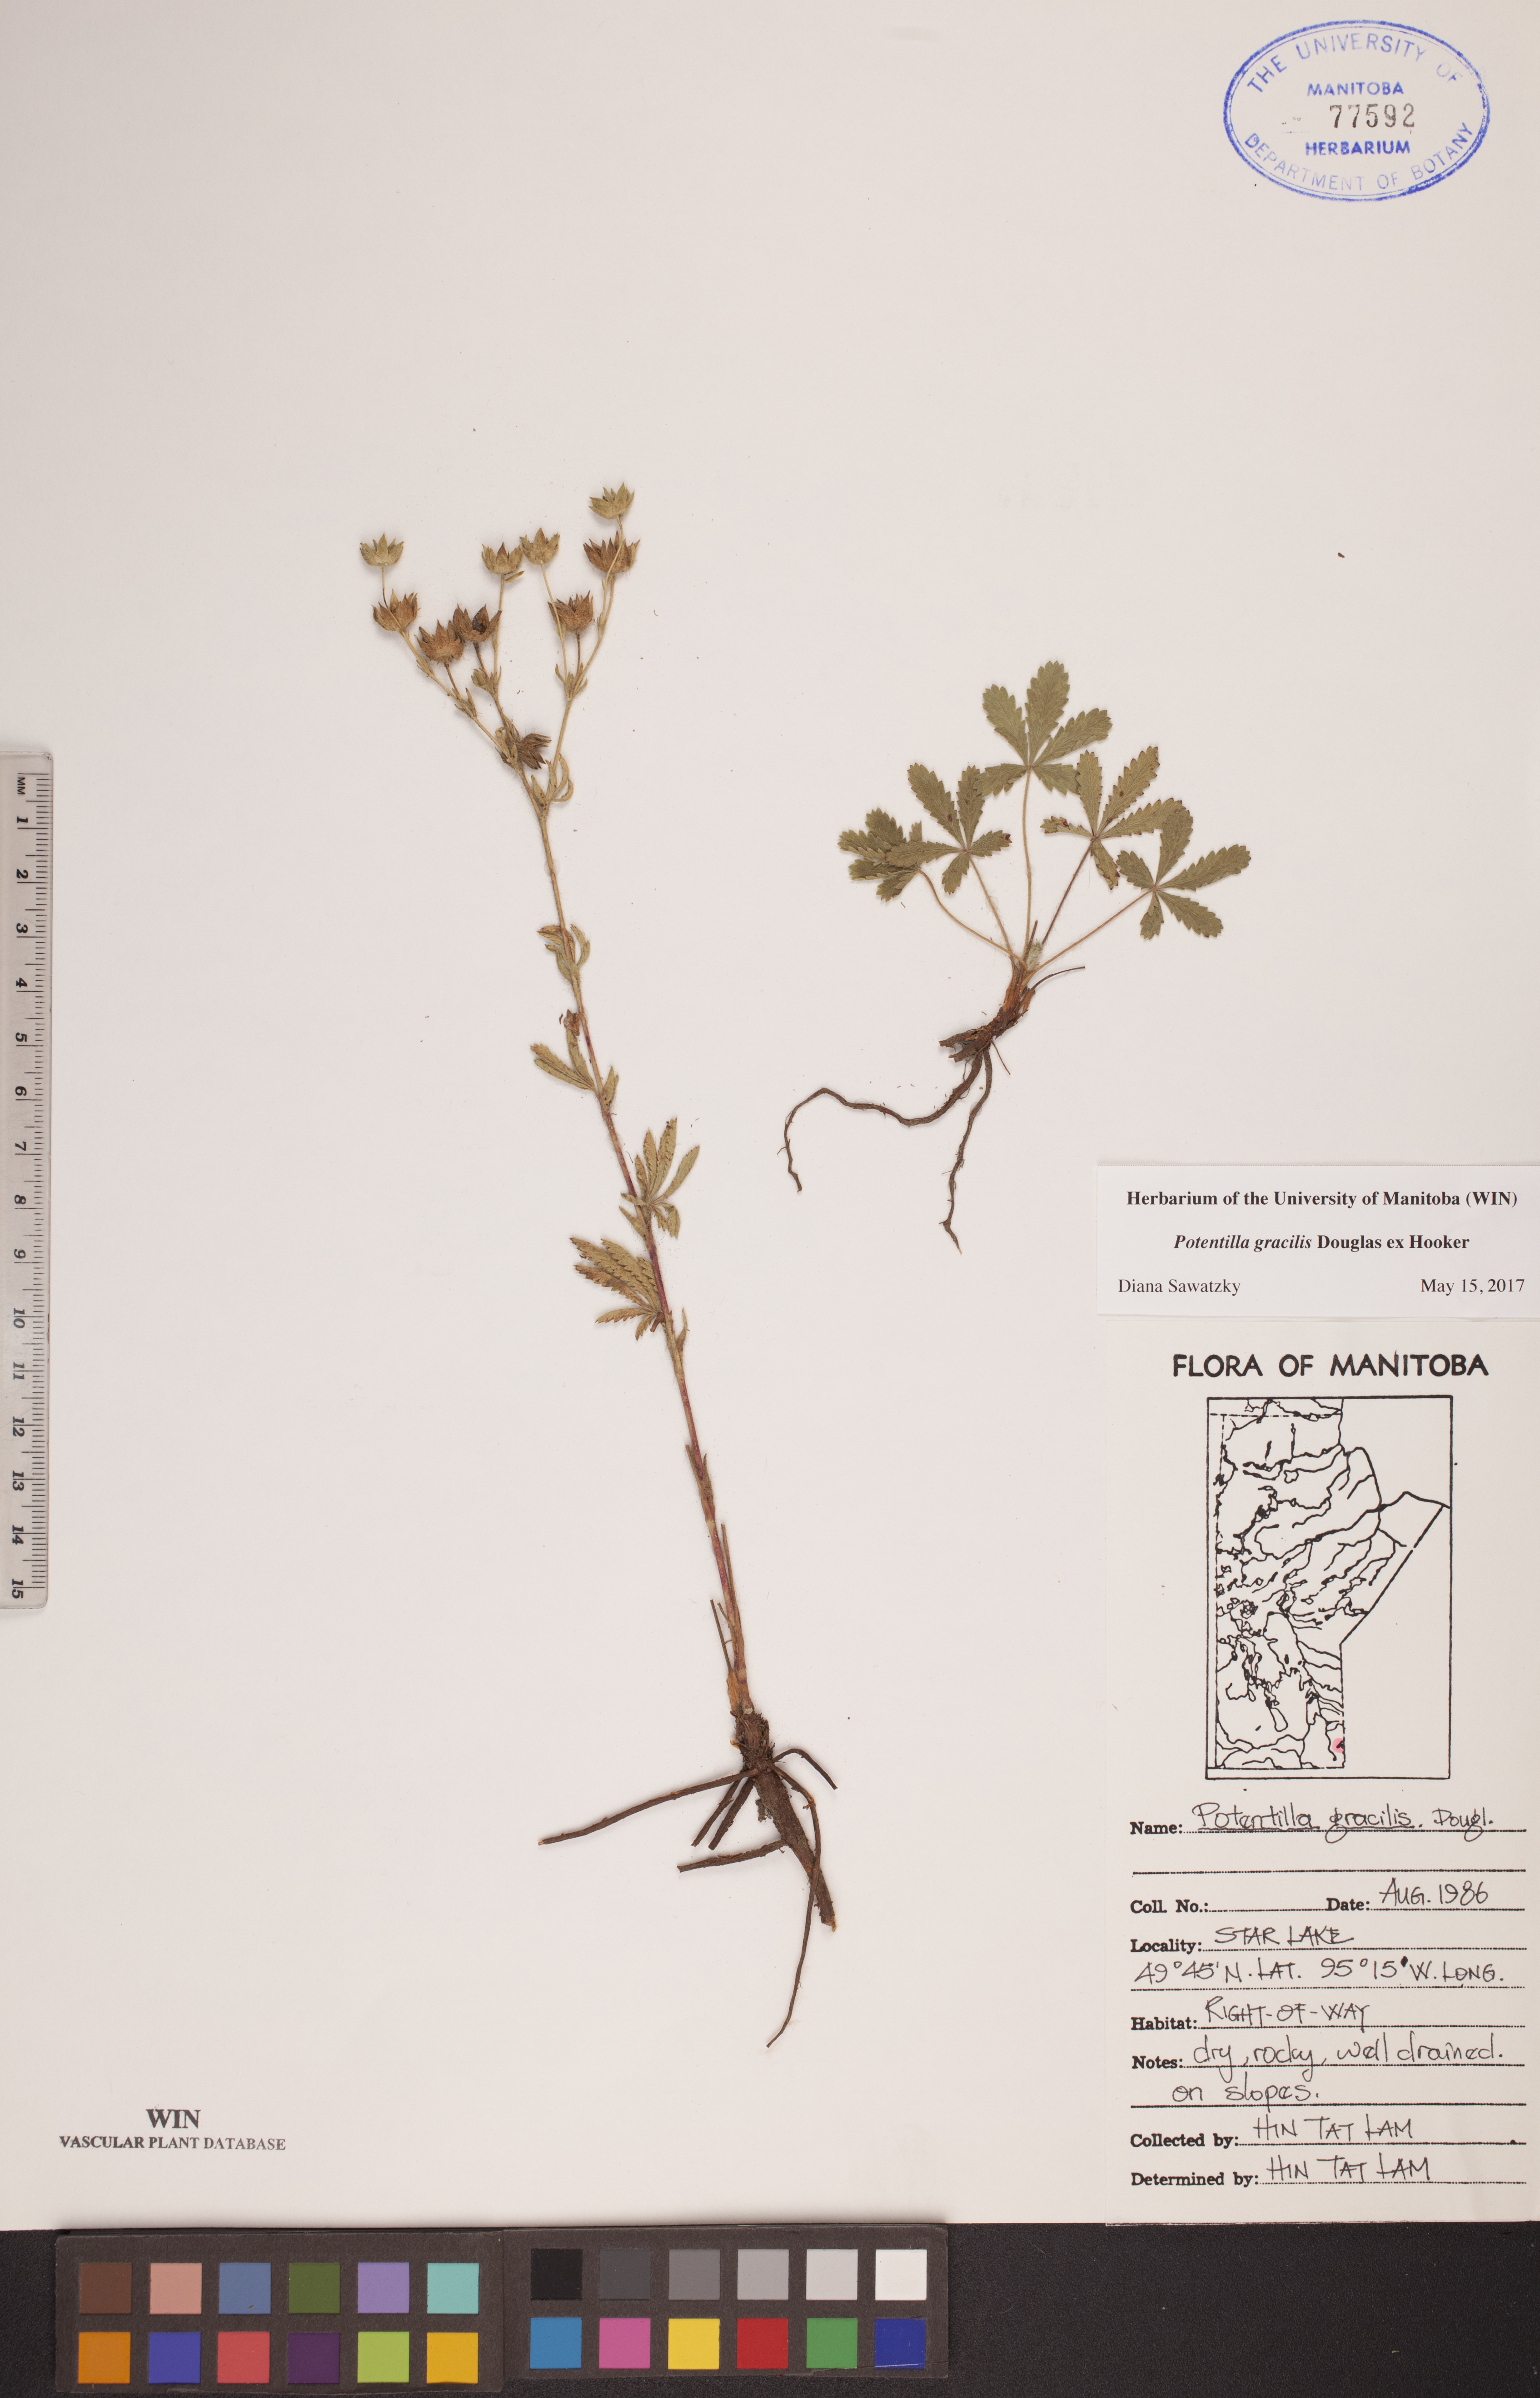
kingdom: Plantae
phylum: Tracheophyta
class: Magnoliopsida
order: Rosales
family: Rosaceae
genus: Potentilla
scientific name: Potentilla gracilis
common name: Graceful cinquefoil
